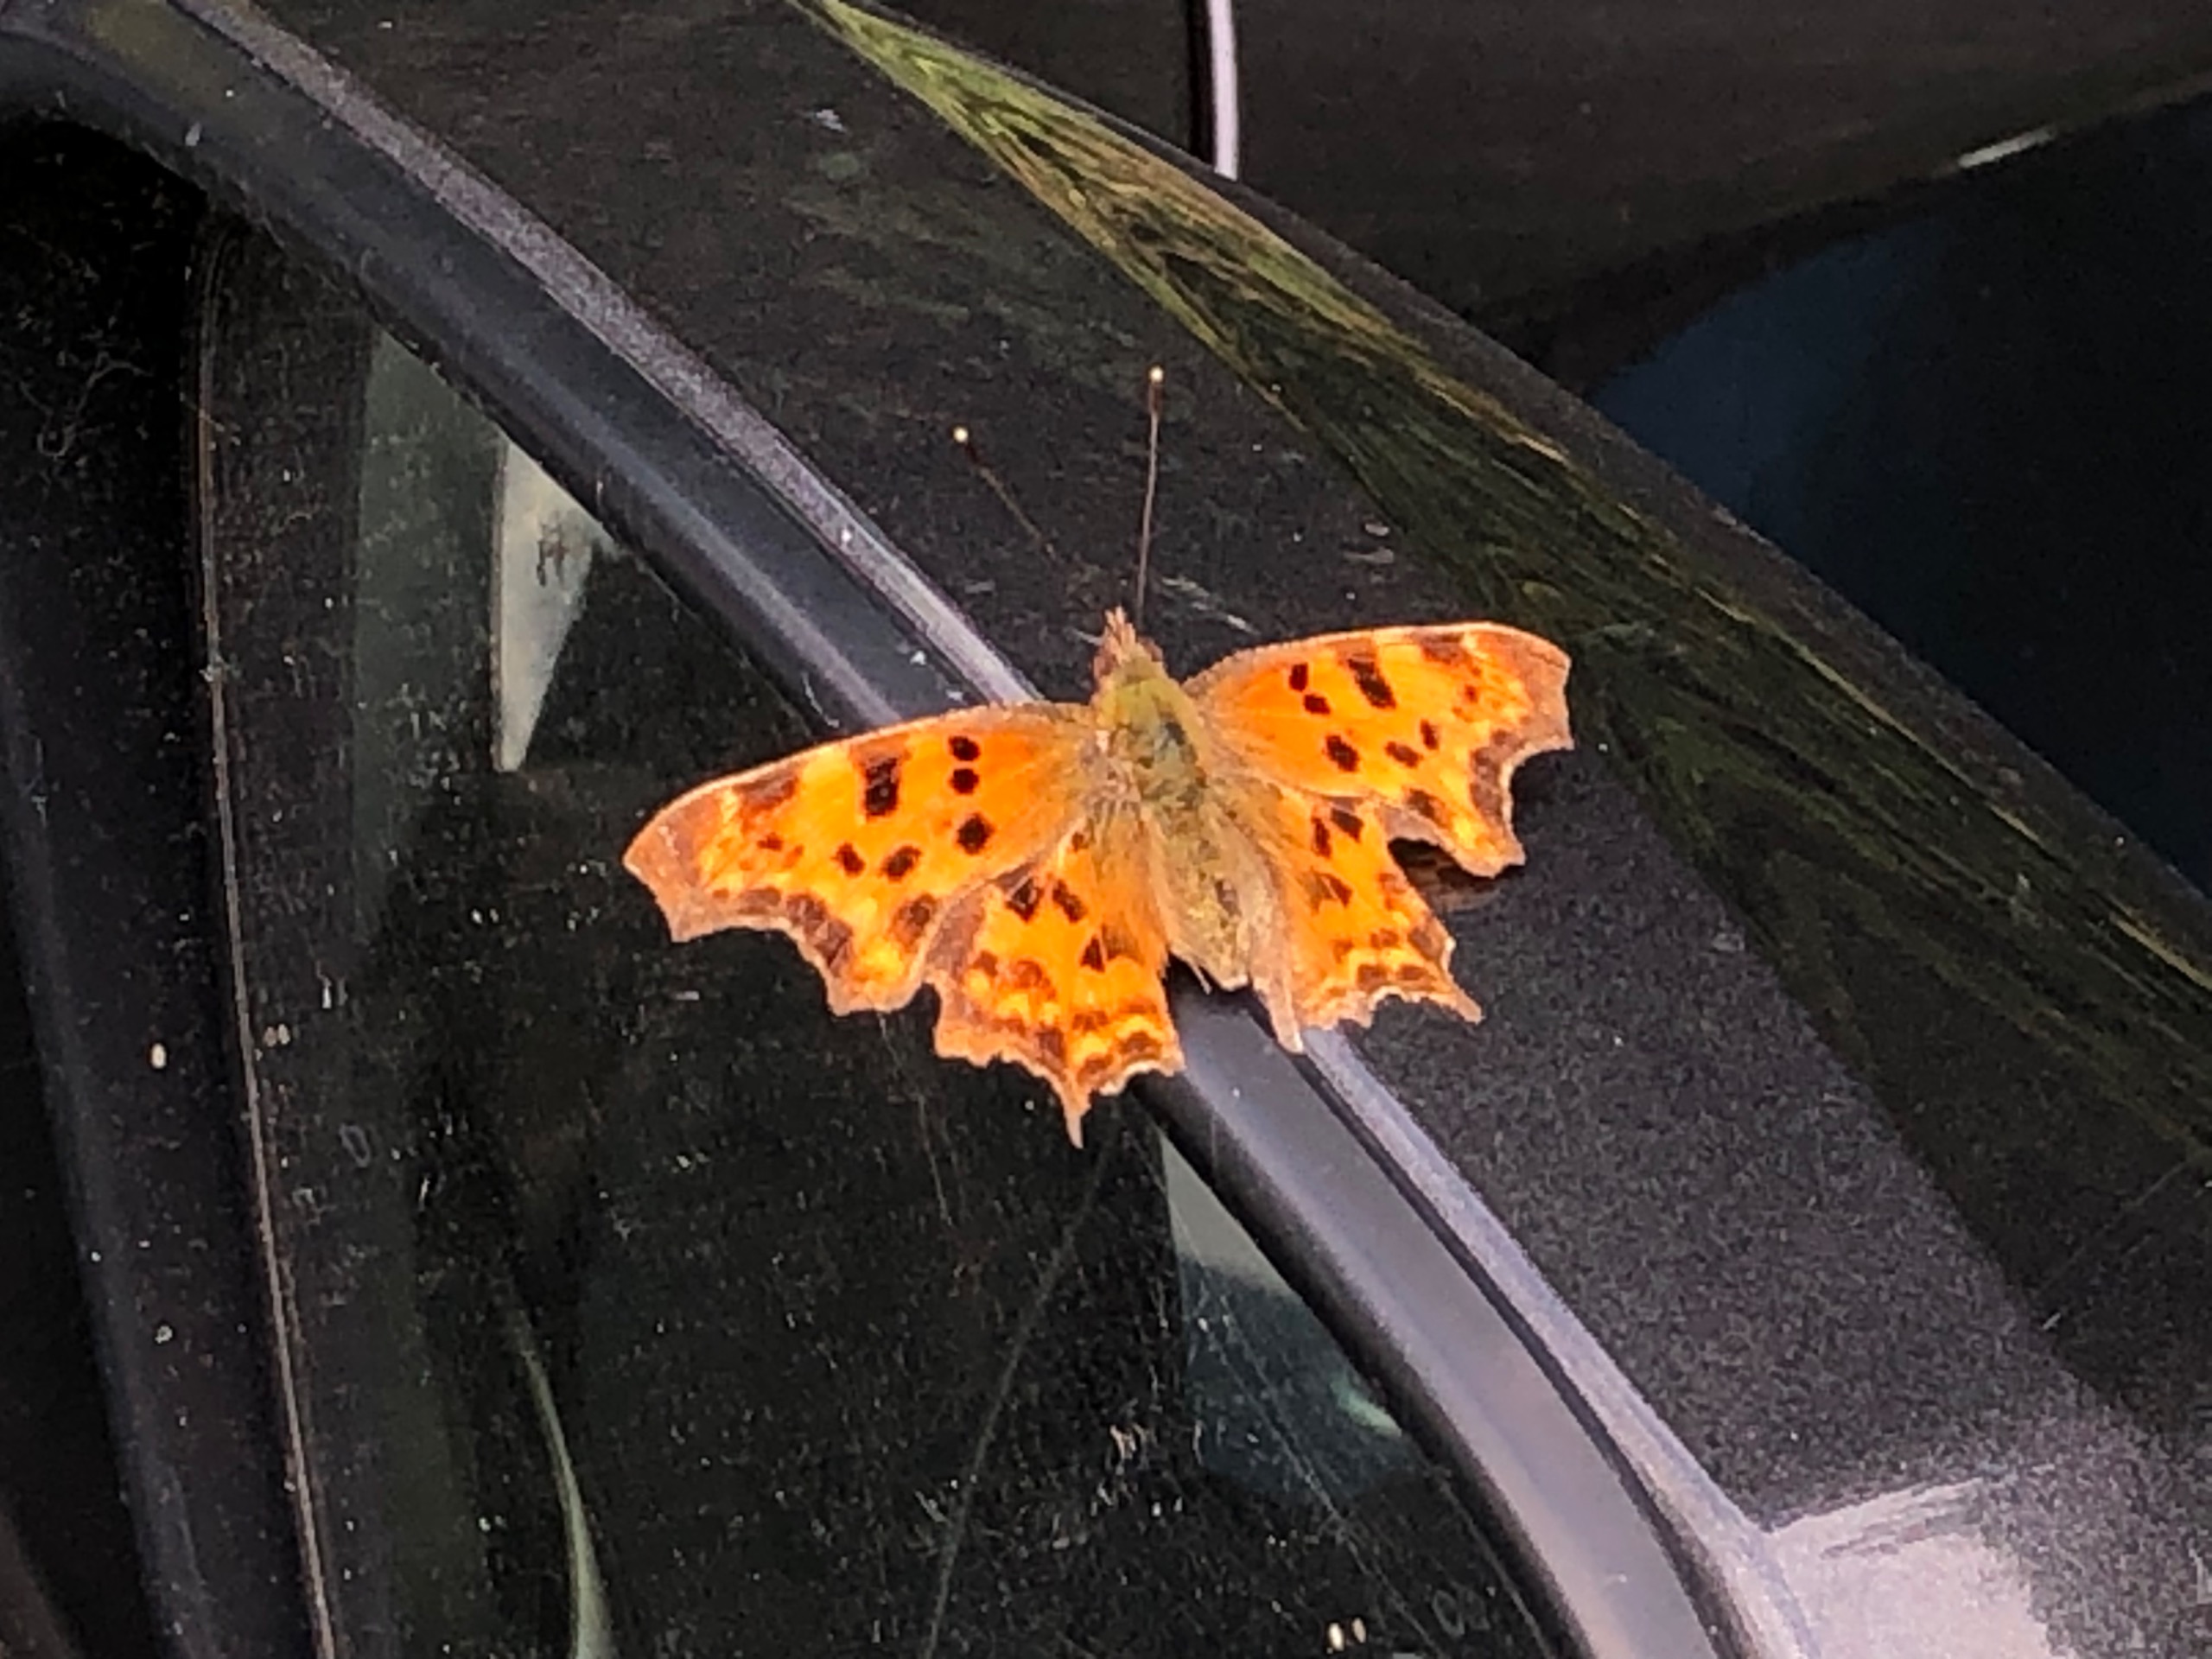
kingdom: Animalia
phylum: Arthropoda
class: Insecta
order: Lepidoptera
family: Nymphalidae
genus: Polygonia
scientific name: Polygonia c-album
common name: Det hvide C
